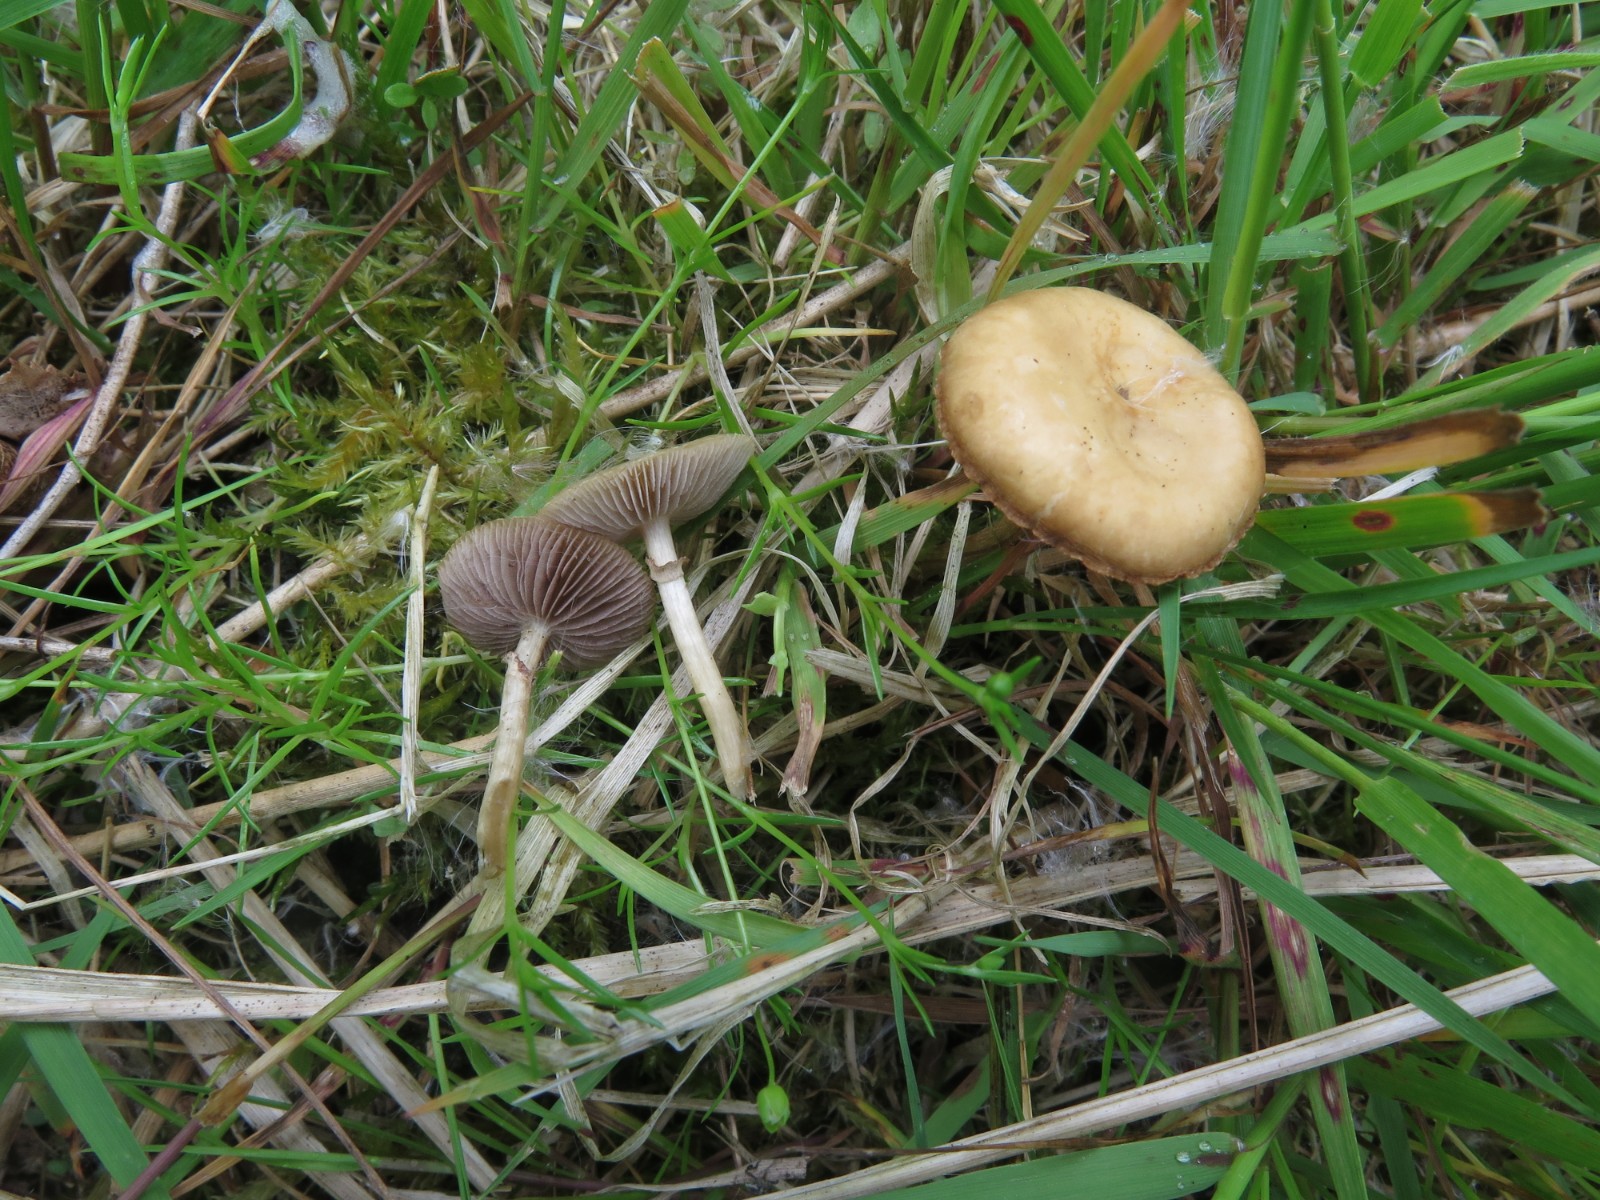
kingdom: Fungi
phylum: Basidiomycota
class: Agaricomycetes
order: Agaricales
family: Strophariaceae
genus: Agrocybe
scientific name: Agrocybe elatella
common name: mose-agerhat
